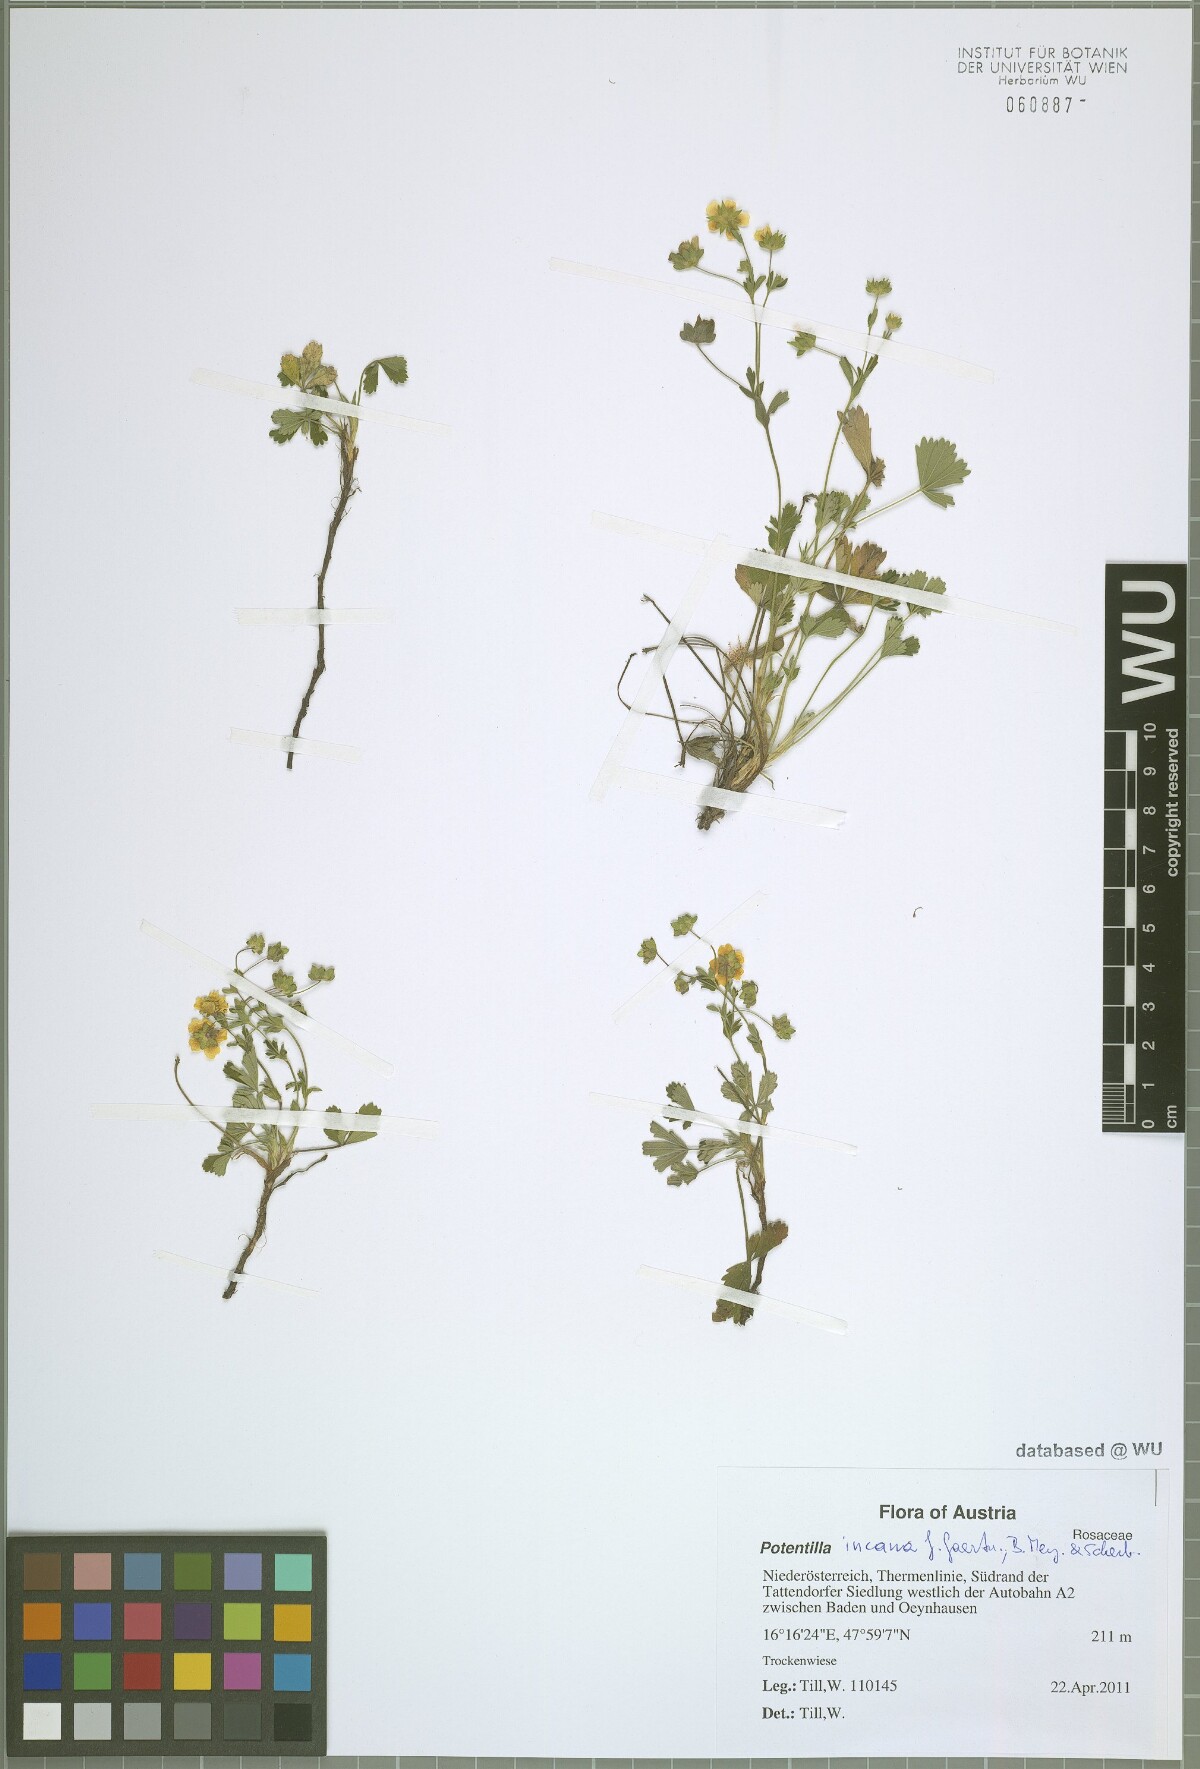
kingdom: Plantae
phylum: Tracheophyta
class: Magnoliopsida
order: Rosales
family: Rosaceae
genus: Potentilla
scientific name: Potentilla cinerea
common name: Ashy cinquefoil
